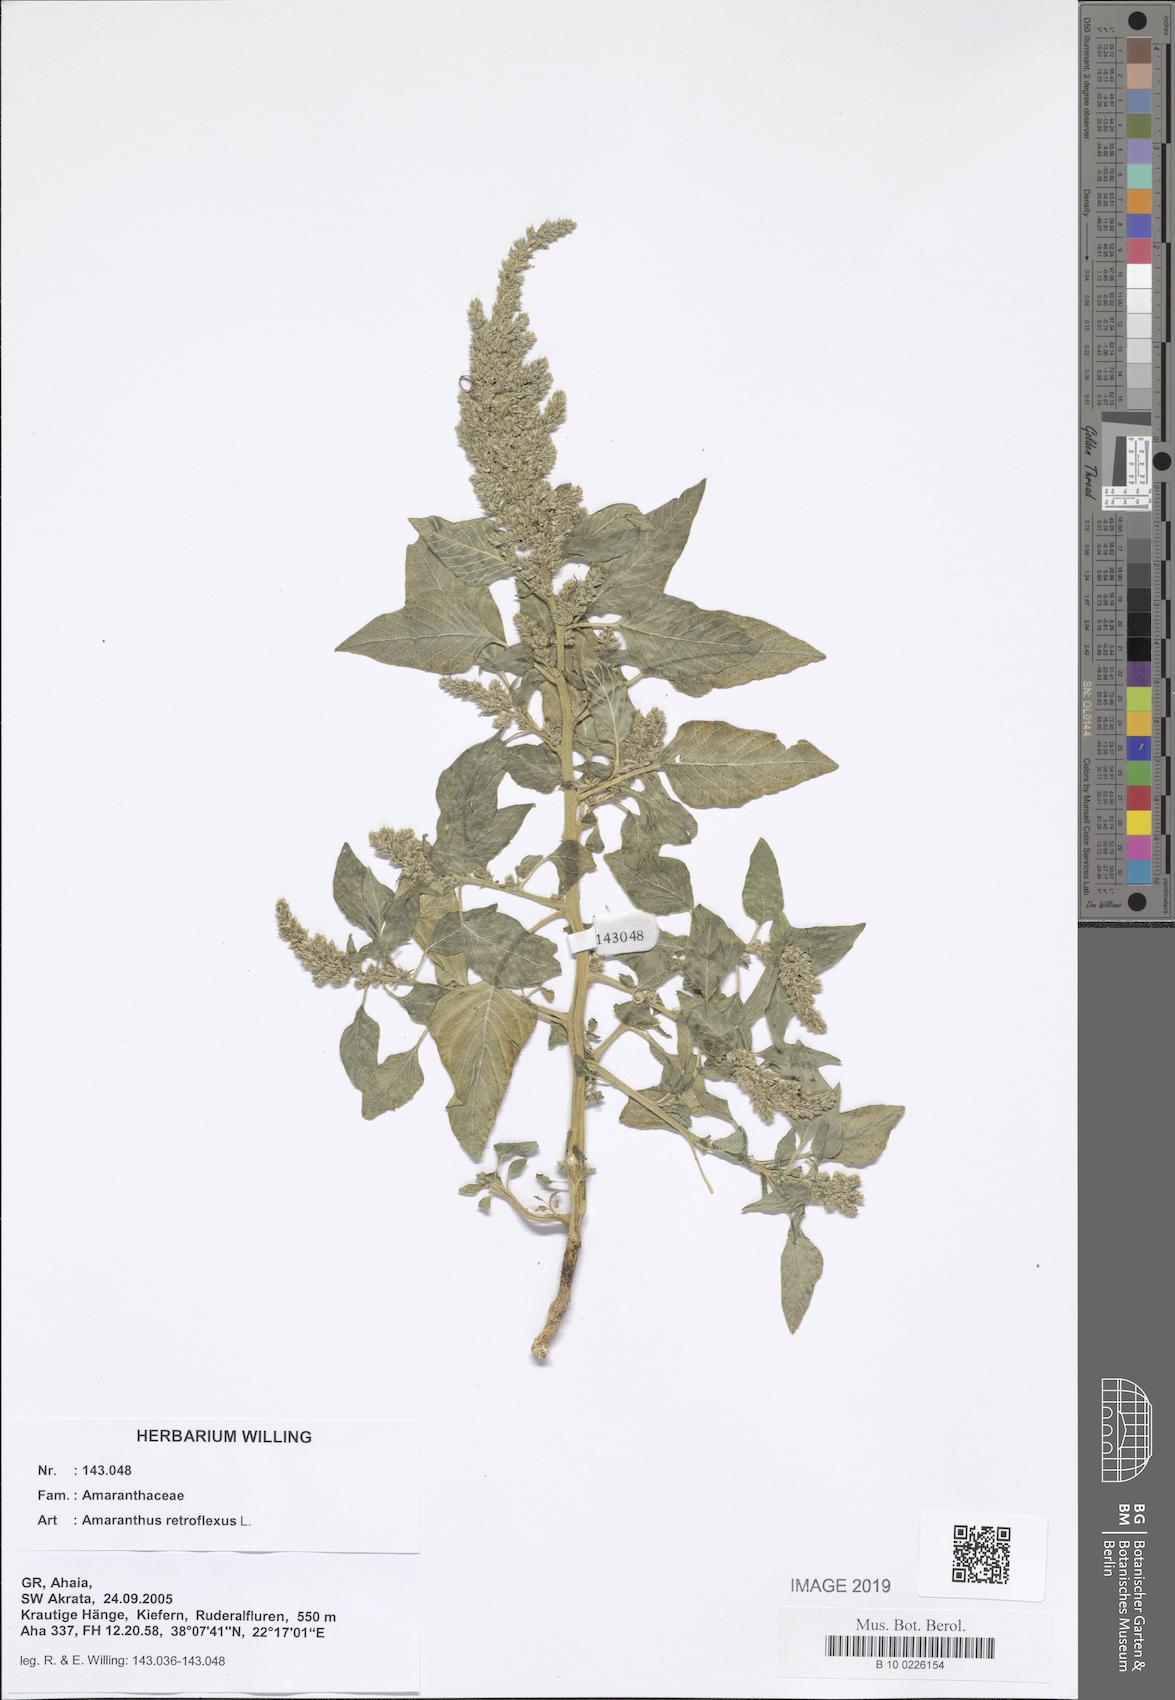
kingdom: Plantae
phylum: Tracheophyta
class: Magnoliopsida
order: Caryophyllales
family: Amaranthaceae
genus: Amaranthus
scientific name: Amaranthus retroflexus
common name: Redroot amaranth
